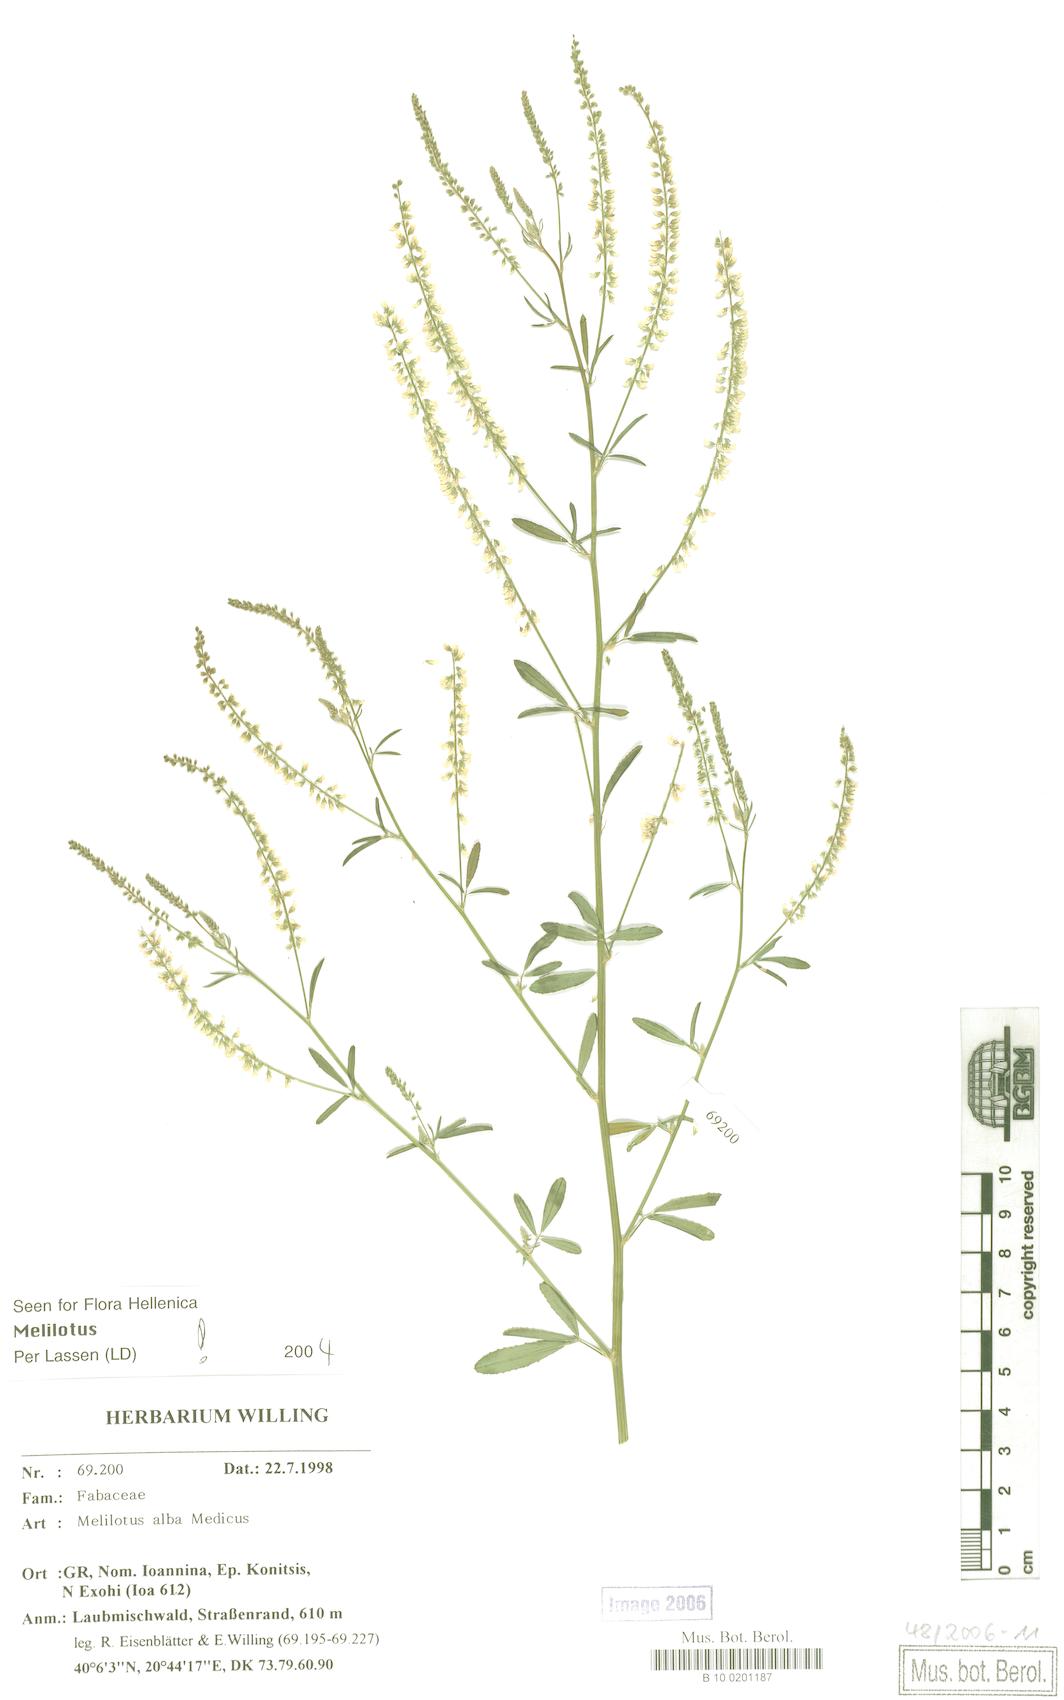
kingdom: Plantae
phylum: Tracheophyta
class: Magnoliopsida
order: Fabales
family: Fabaceae
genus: Melilotus
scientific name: Melilotus albus
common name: White melilot
